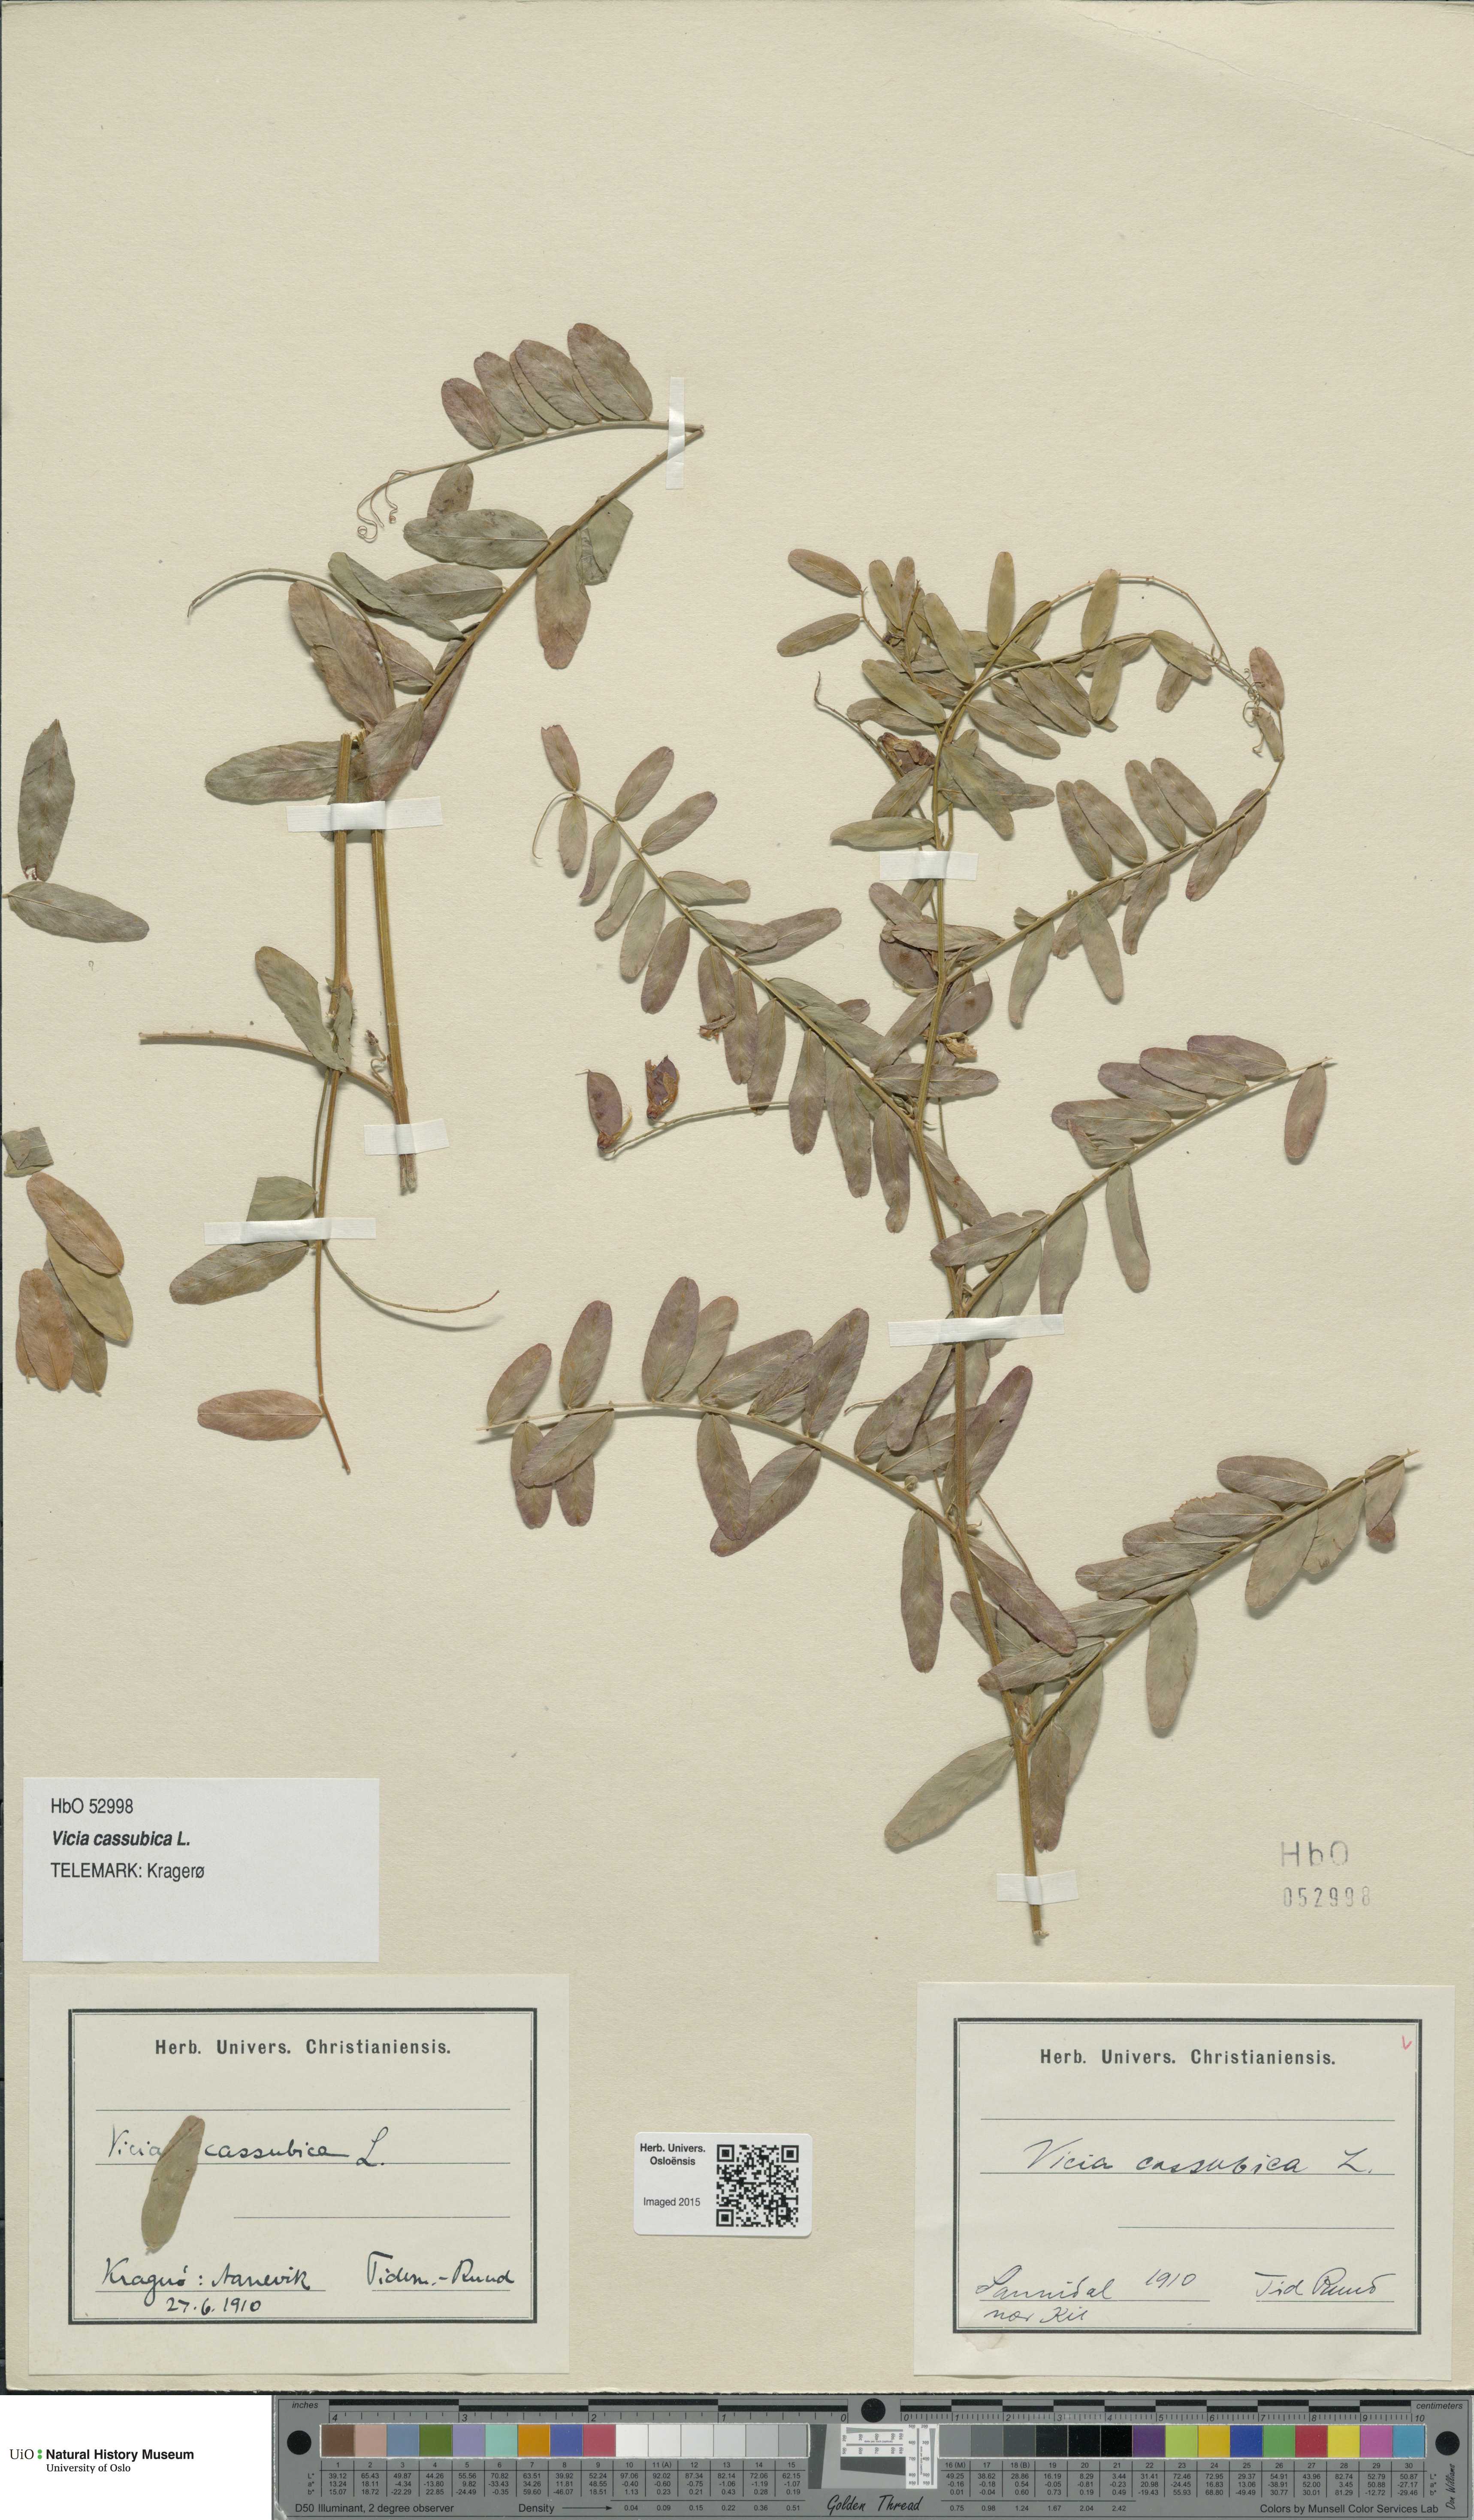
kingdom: Plantae
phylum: Tracheophyta
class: Magnoliopsida
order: Fabales
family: Fabaceae
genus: Vicia
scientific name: Vicia cassubica
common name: Danzig vetch
